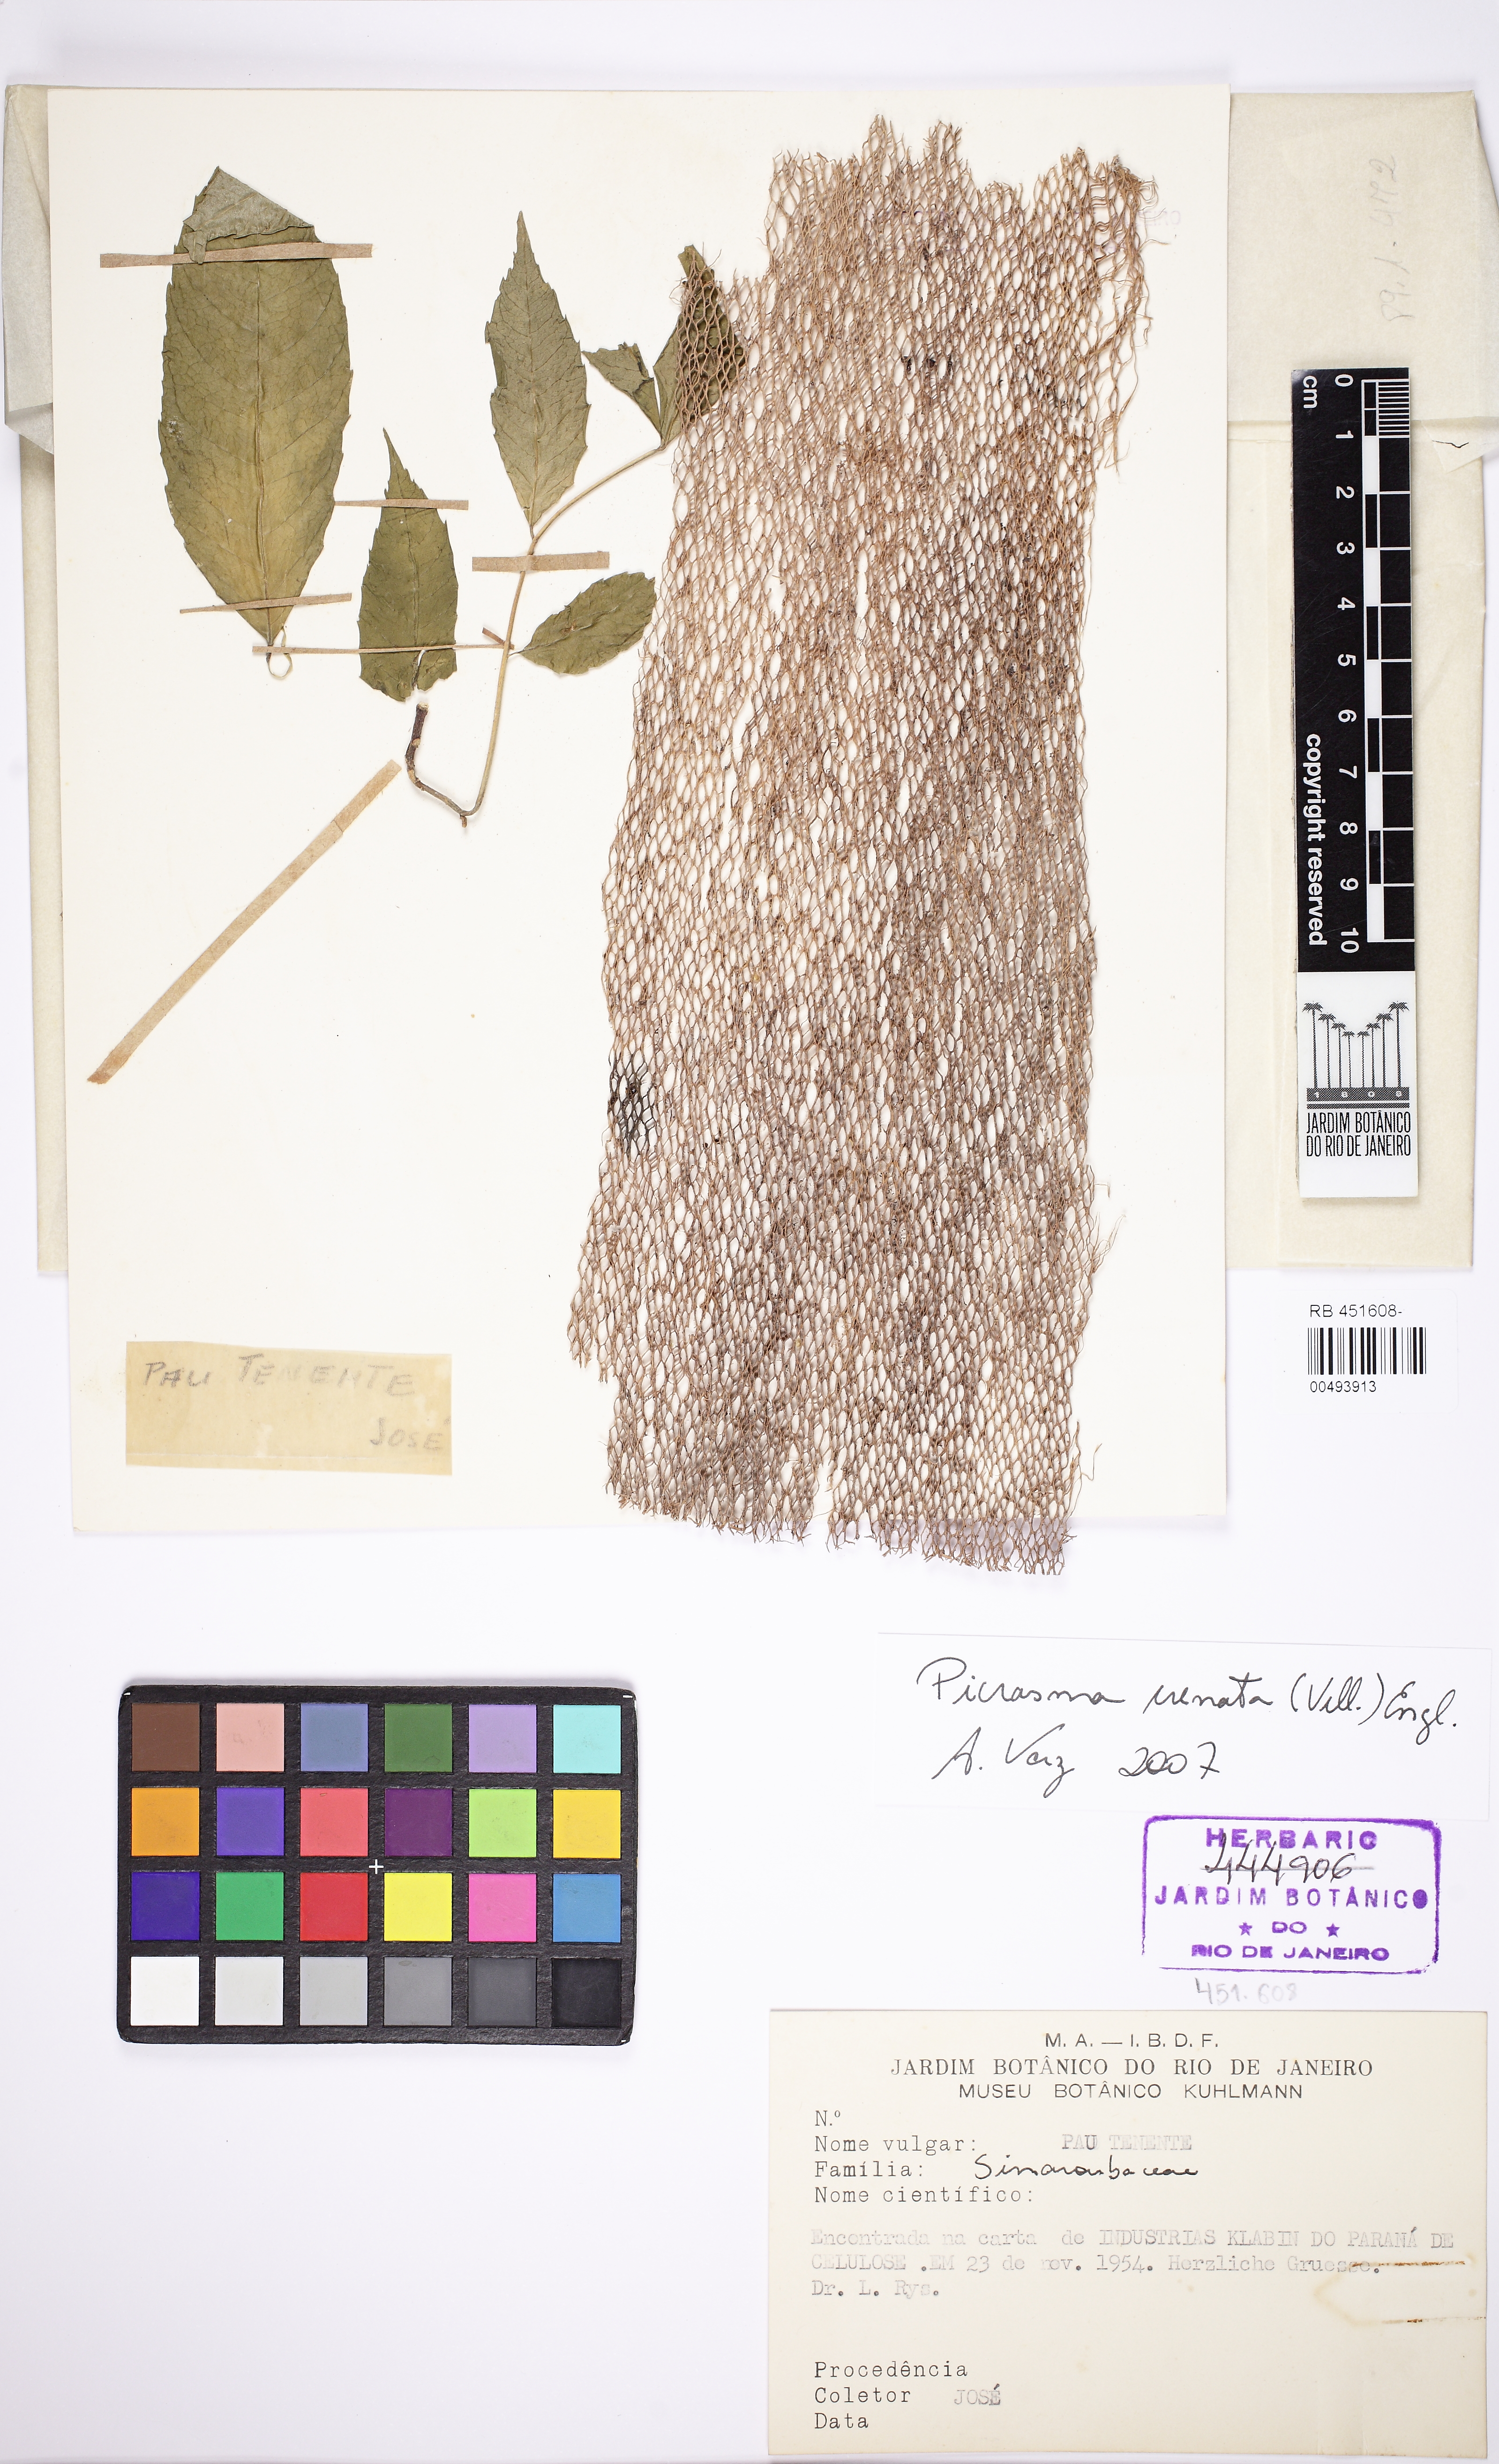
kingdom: Plantae
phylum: Tracheophyta
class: Magnoliopsida
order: Sapindales
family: Simaroubaceae
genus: Picrasma
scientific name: Picrasma crenata
